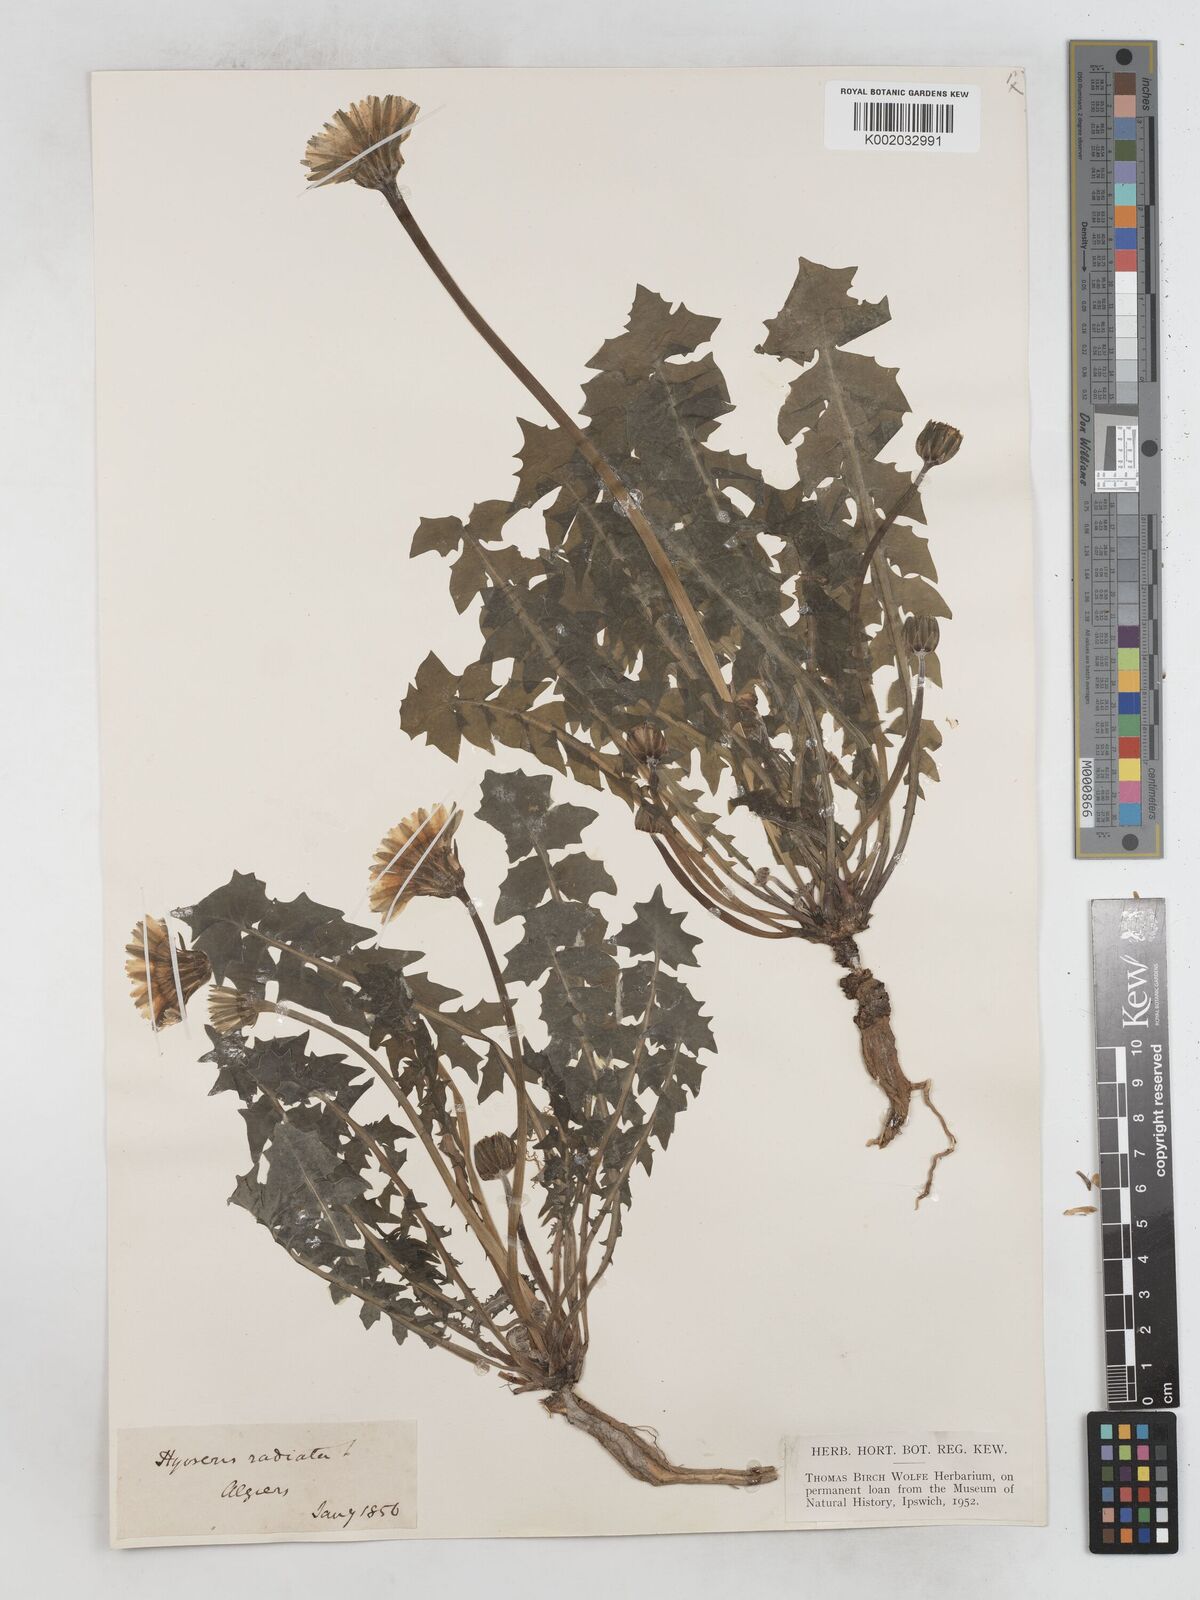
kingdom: Plantae
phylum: Tracheophyta
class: Magnoliopsida
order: Asterales
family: Asteraceae
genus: Hyoseris
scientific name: Hyoseris radiata
